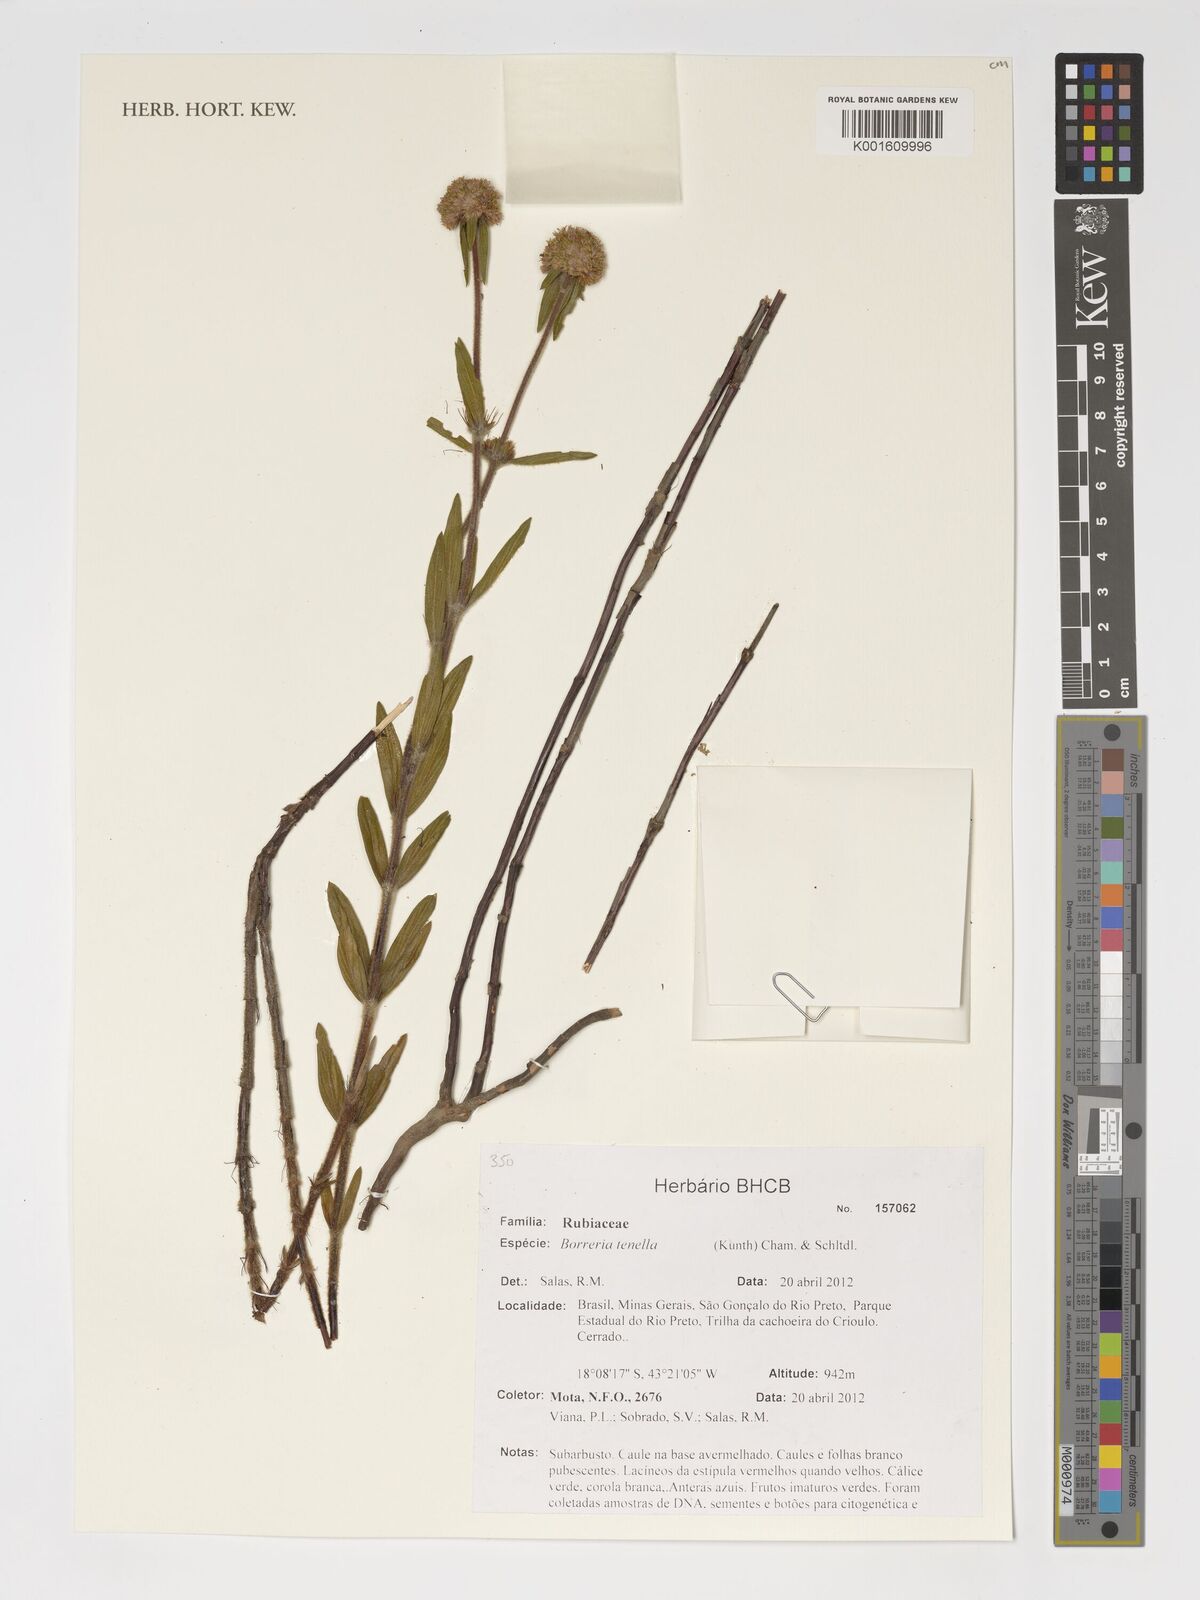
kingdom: Plantae
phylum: Tracheophyta
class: Magnoliopsida
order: Gentianales
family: Rubiaceae
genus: Spermacoce
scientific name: Spermacoce orinocensis
